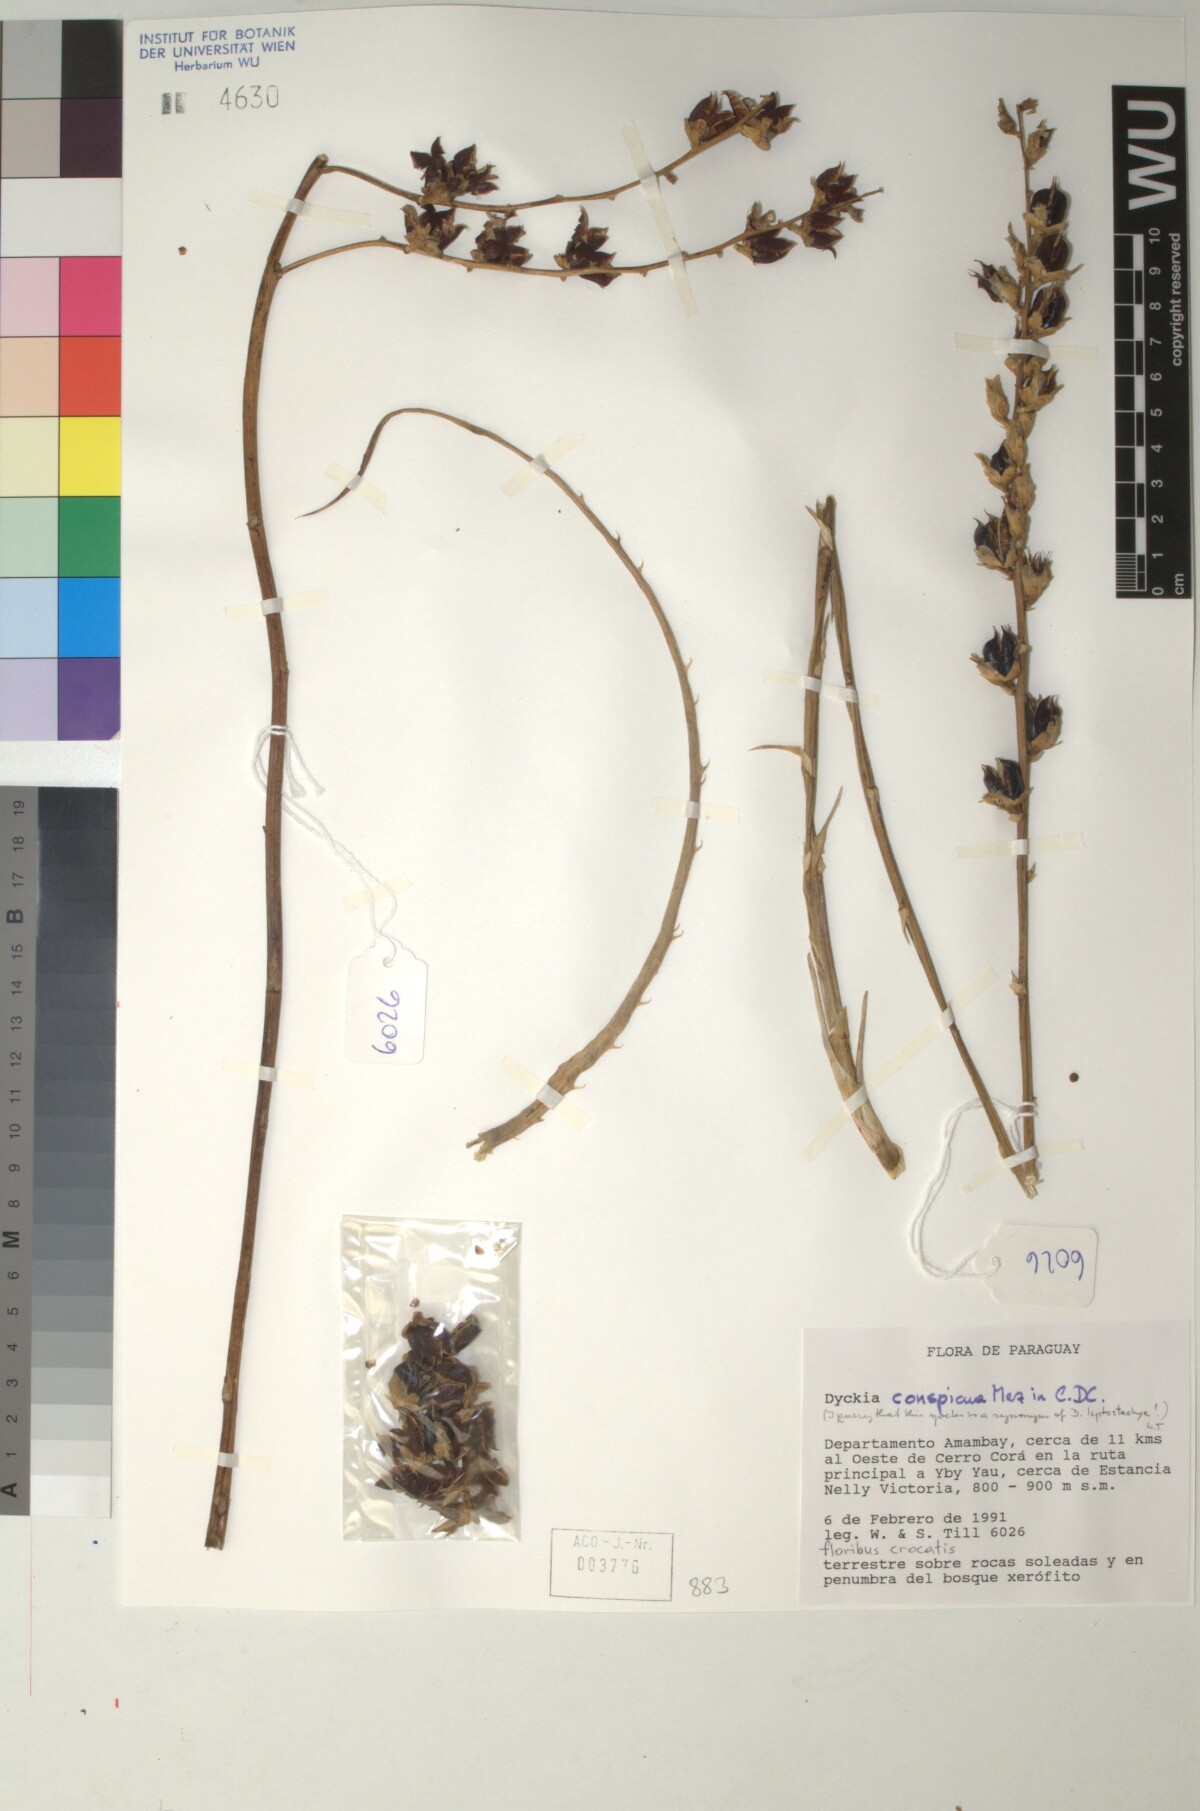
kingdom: Plantae
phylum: Tracheophyta
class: Liliopsida
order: Poales
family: Bromeliaceae
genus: Dyckia
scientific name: Dyckia leptostachya
